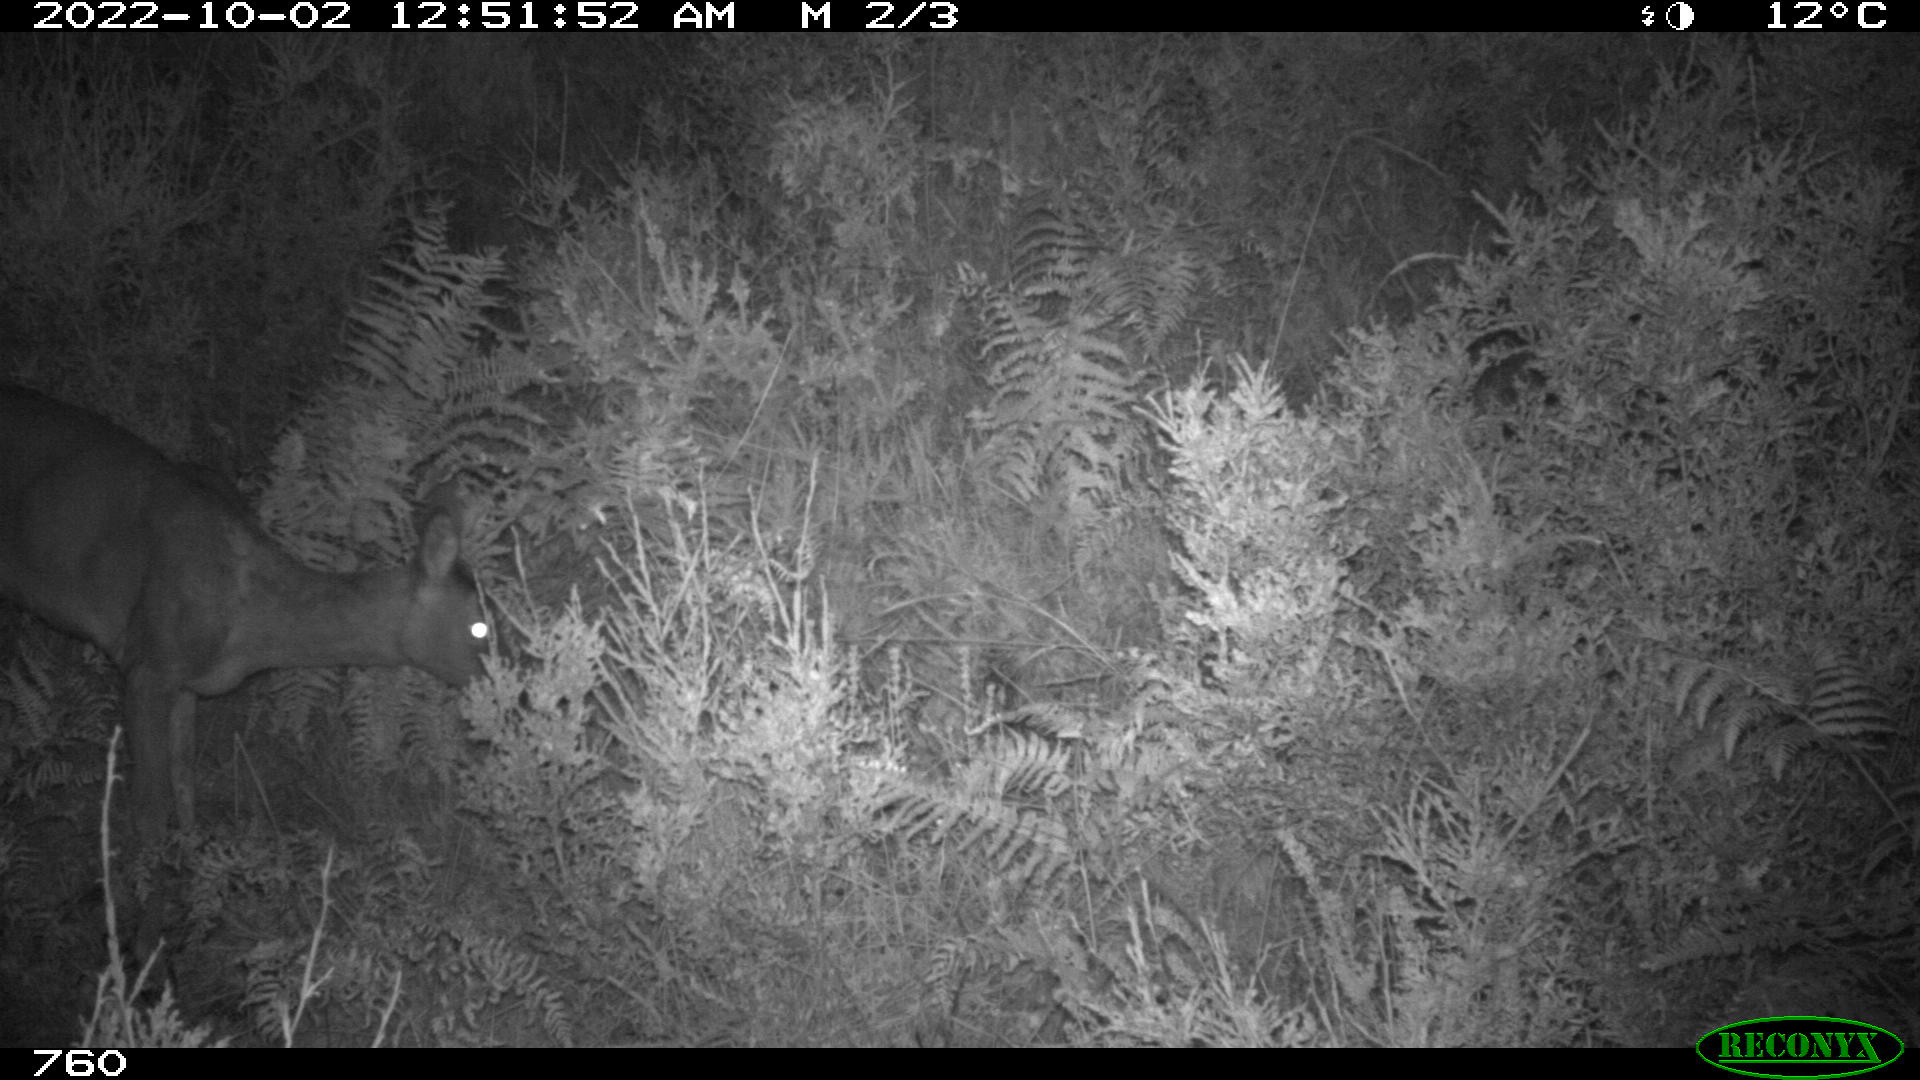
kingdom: Animalia
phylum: Chordata
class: Mammalia
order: Artiodactyla
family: Cervidae
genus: Capreolus
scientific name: Capreolus capreolus
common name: Western roe deer
